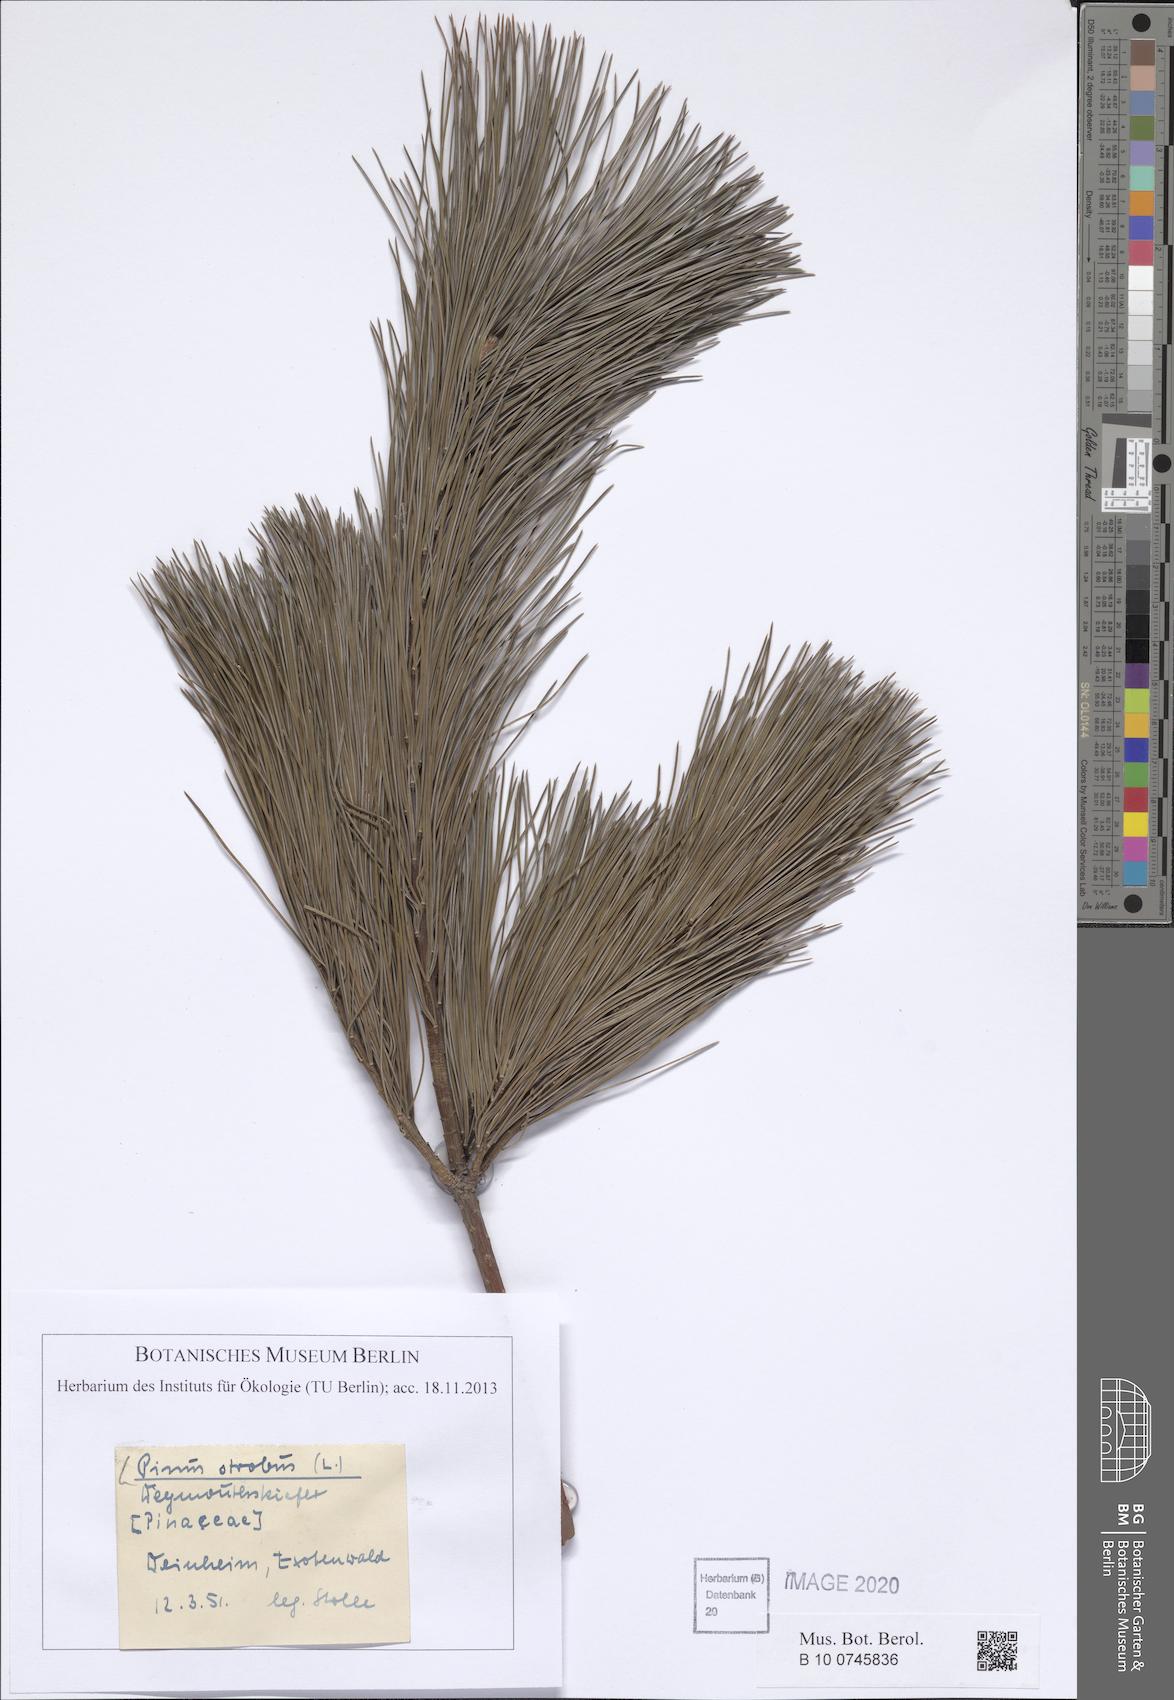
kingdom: Plantae
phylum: Tracheophyta
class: Pinopsida
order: Pinales
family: Pinaceae
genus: Pinus
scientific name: Pinus strobus
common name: Weymouth pine
